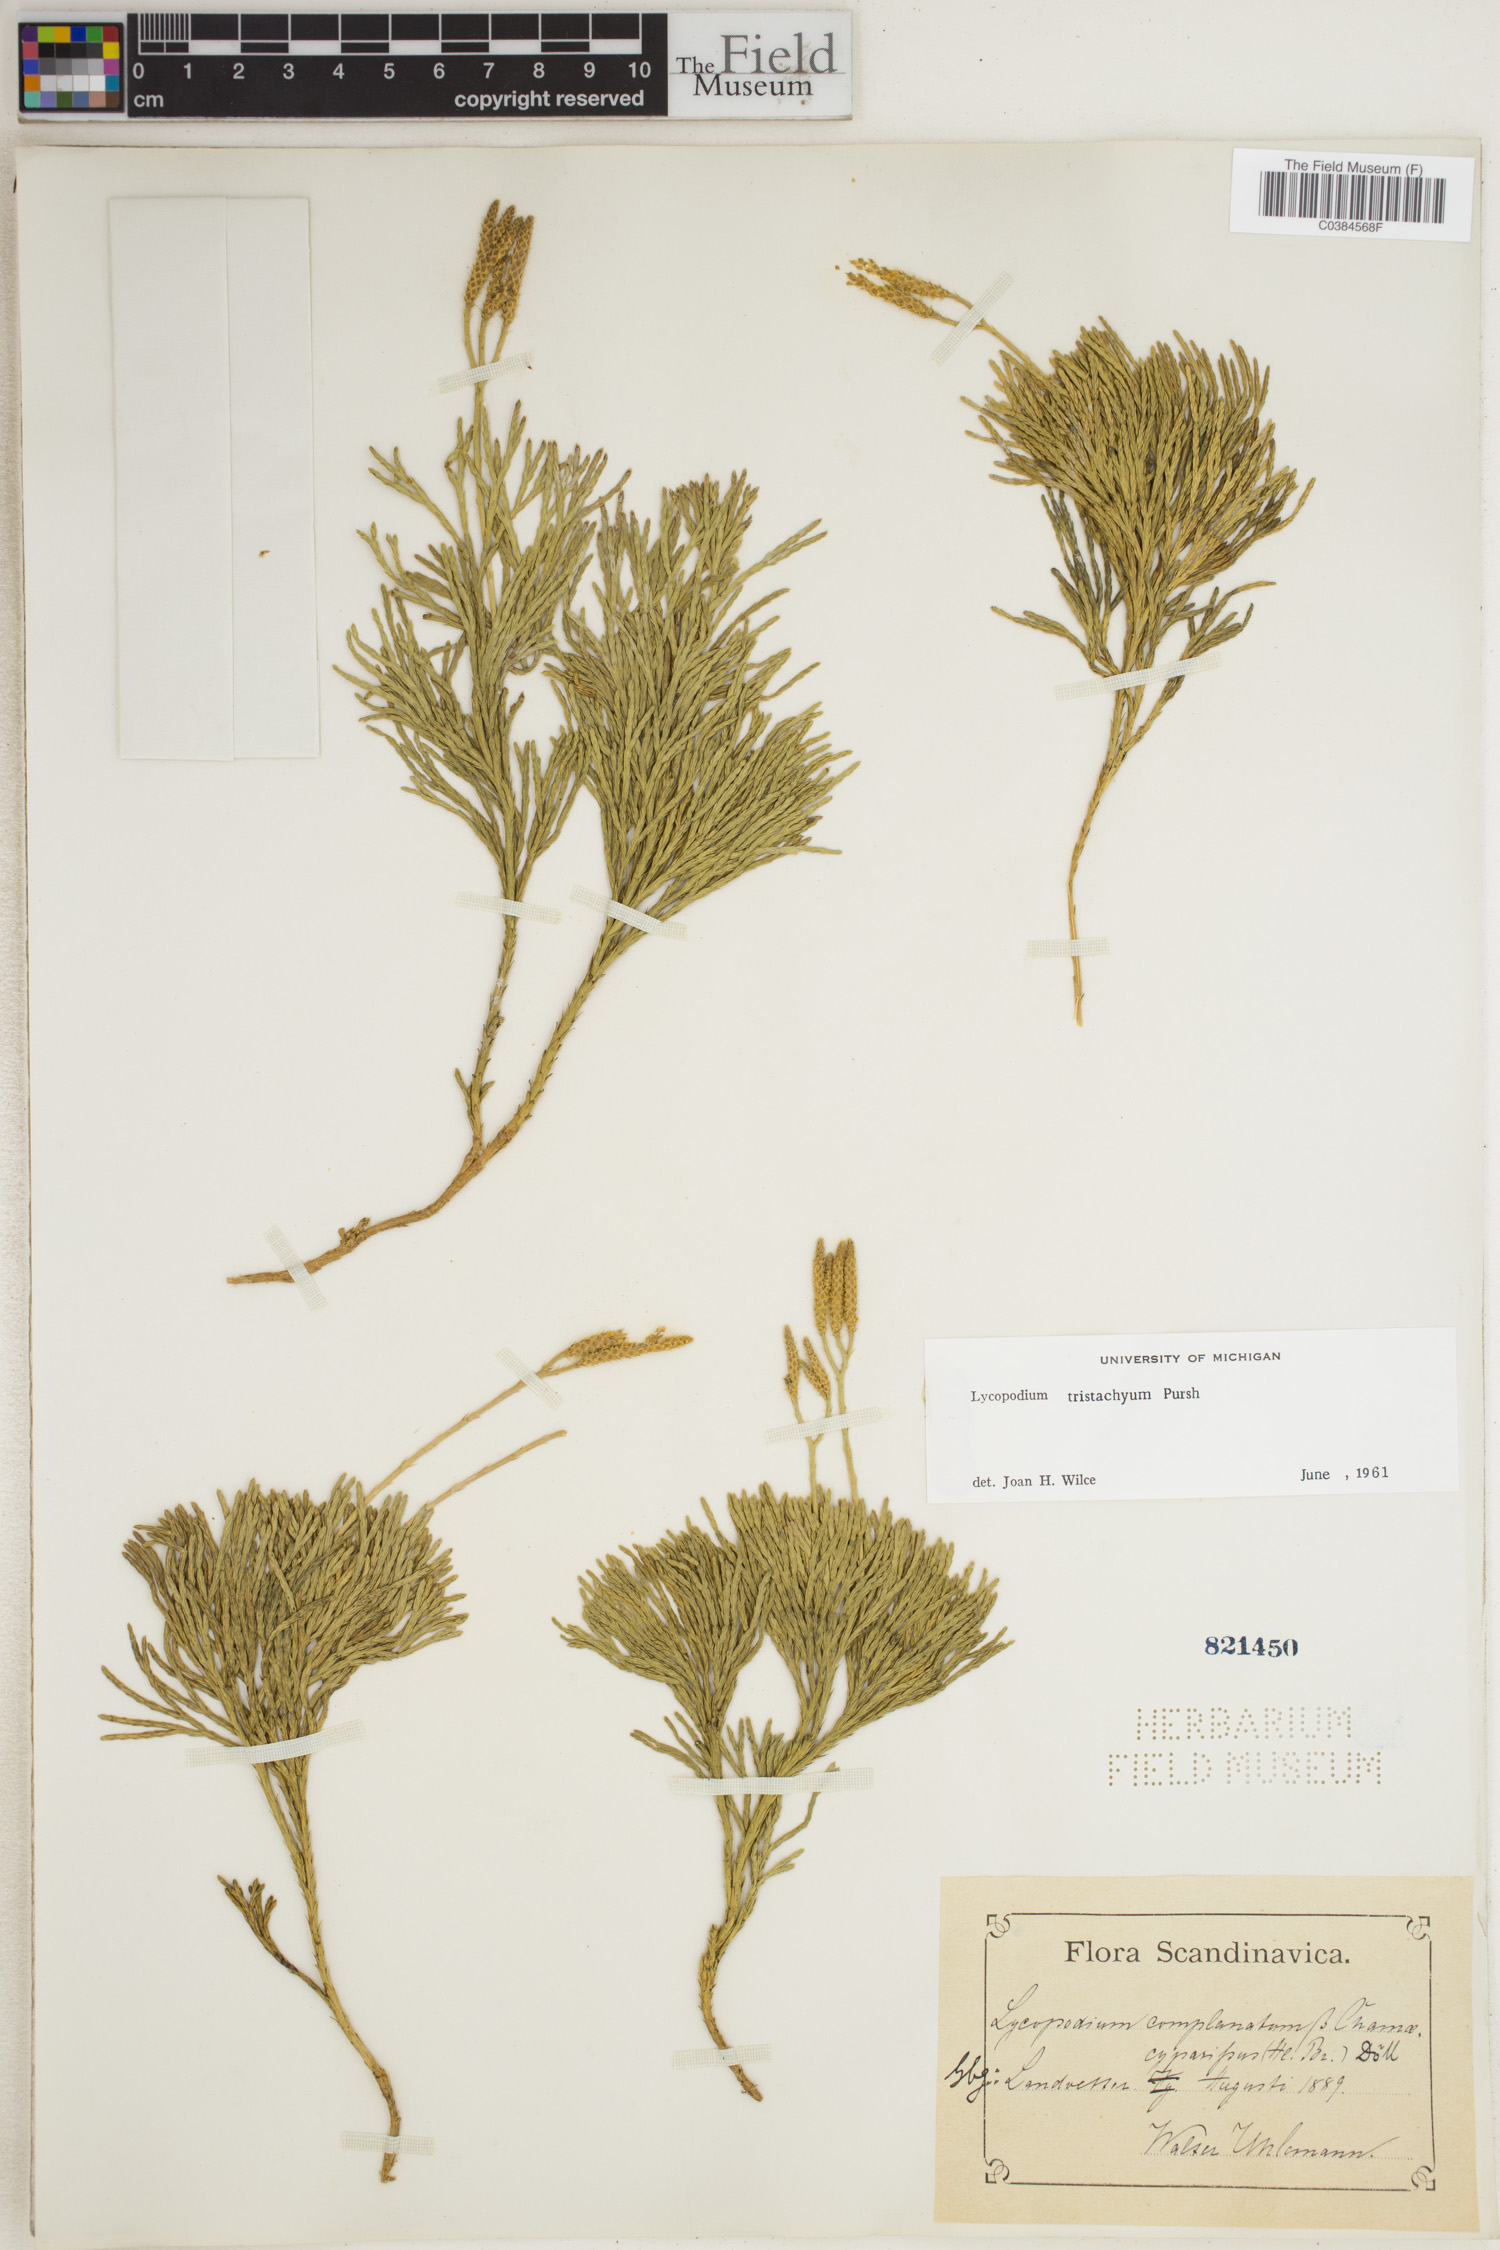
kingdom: Plantae
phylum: Tracheophyta
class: Lycopodiopsida
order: Lycopodiales
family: Lycopodiaceae
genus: Diphasiastrum
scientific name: Diphasiastrum tristachyum
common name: Blue ground-cedar
